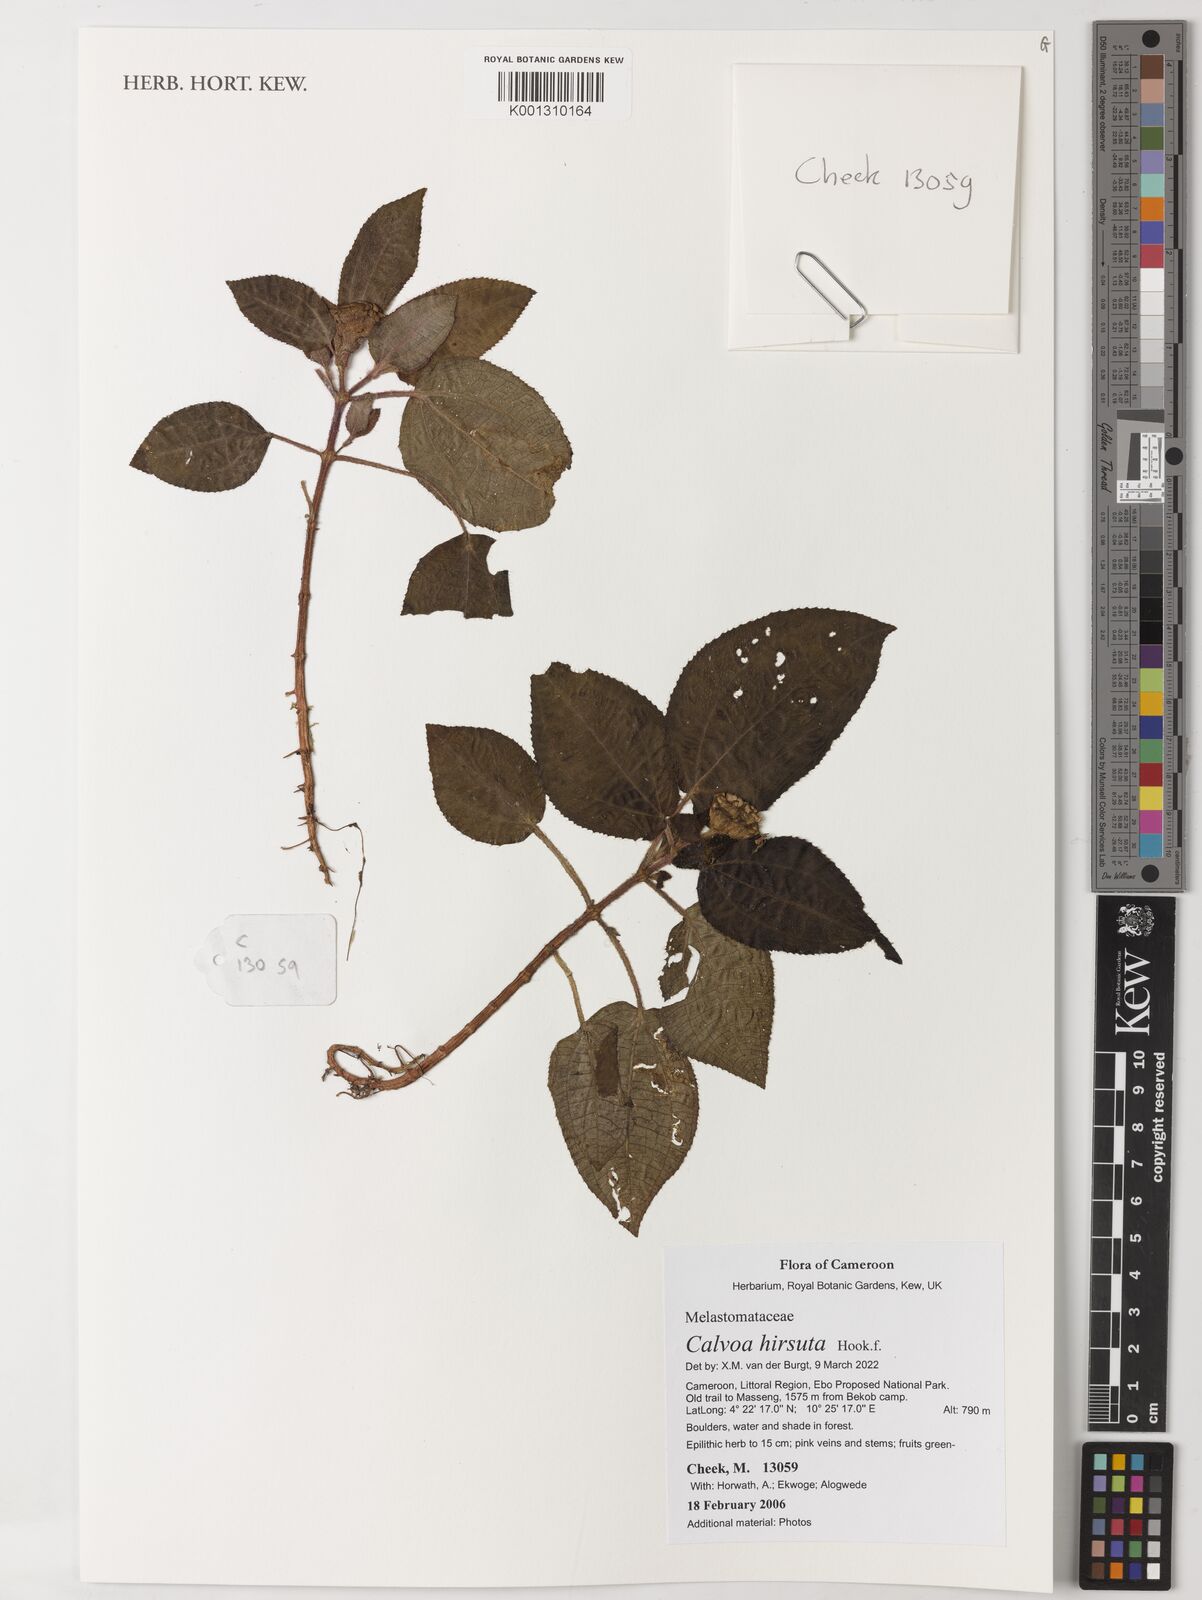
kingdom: Plantae
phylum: Tracheophyta
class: Magnoliopsida
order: Myrtales
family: Melastomataceae
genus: Calvoa
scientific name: Calvoa hirsuta
